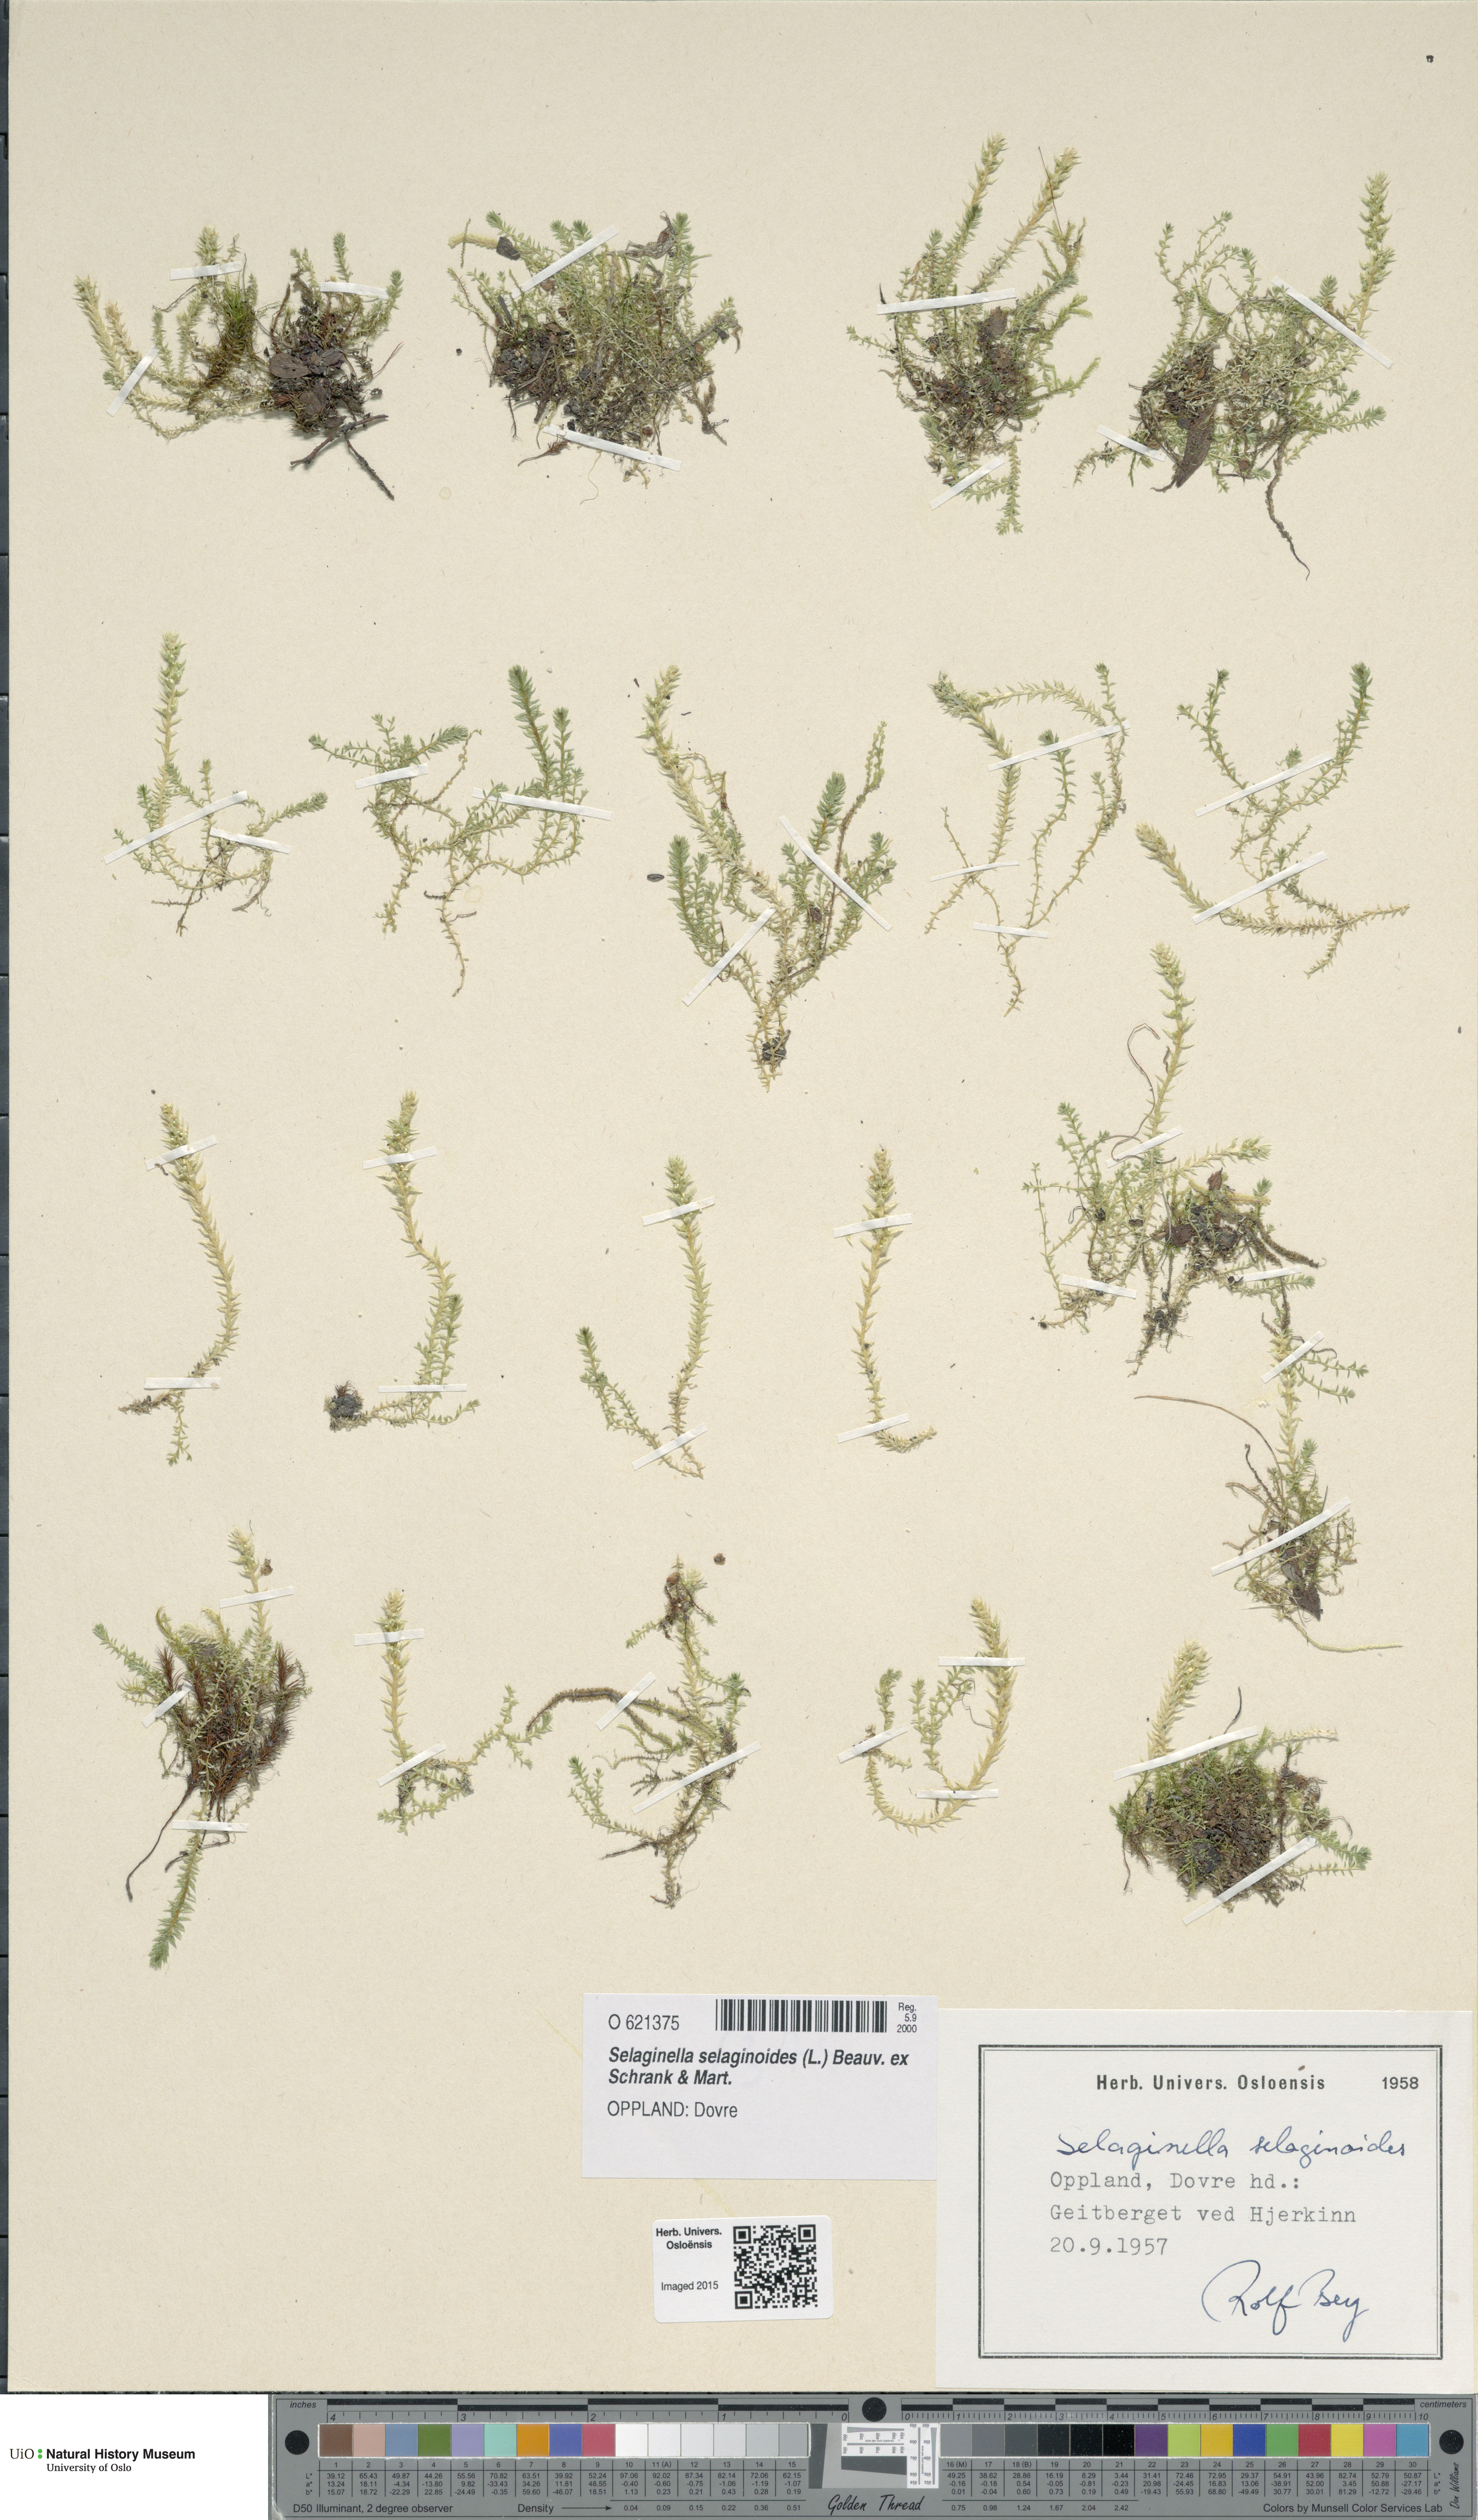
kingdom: Plantae
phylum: Tracheophyta
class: Lycopodiopsida
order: Selaginellales
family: Selaginellaceae
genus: Selaginella
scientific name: Selaginella selaginoides
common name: Prickly mountain-moss
